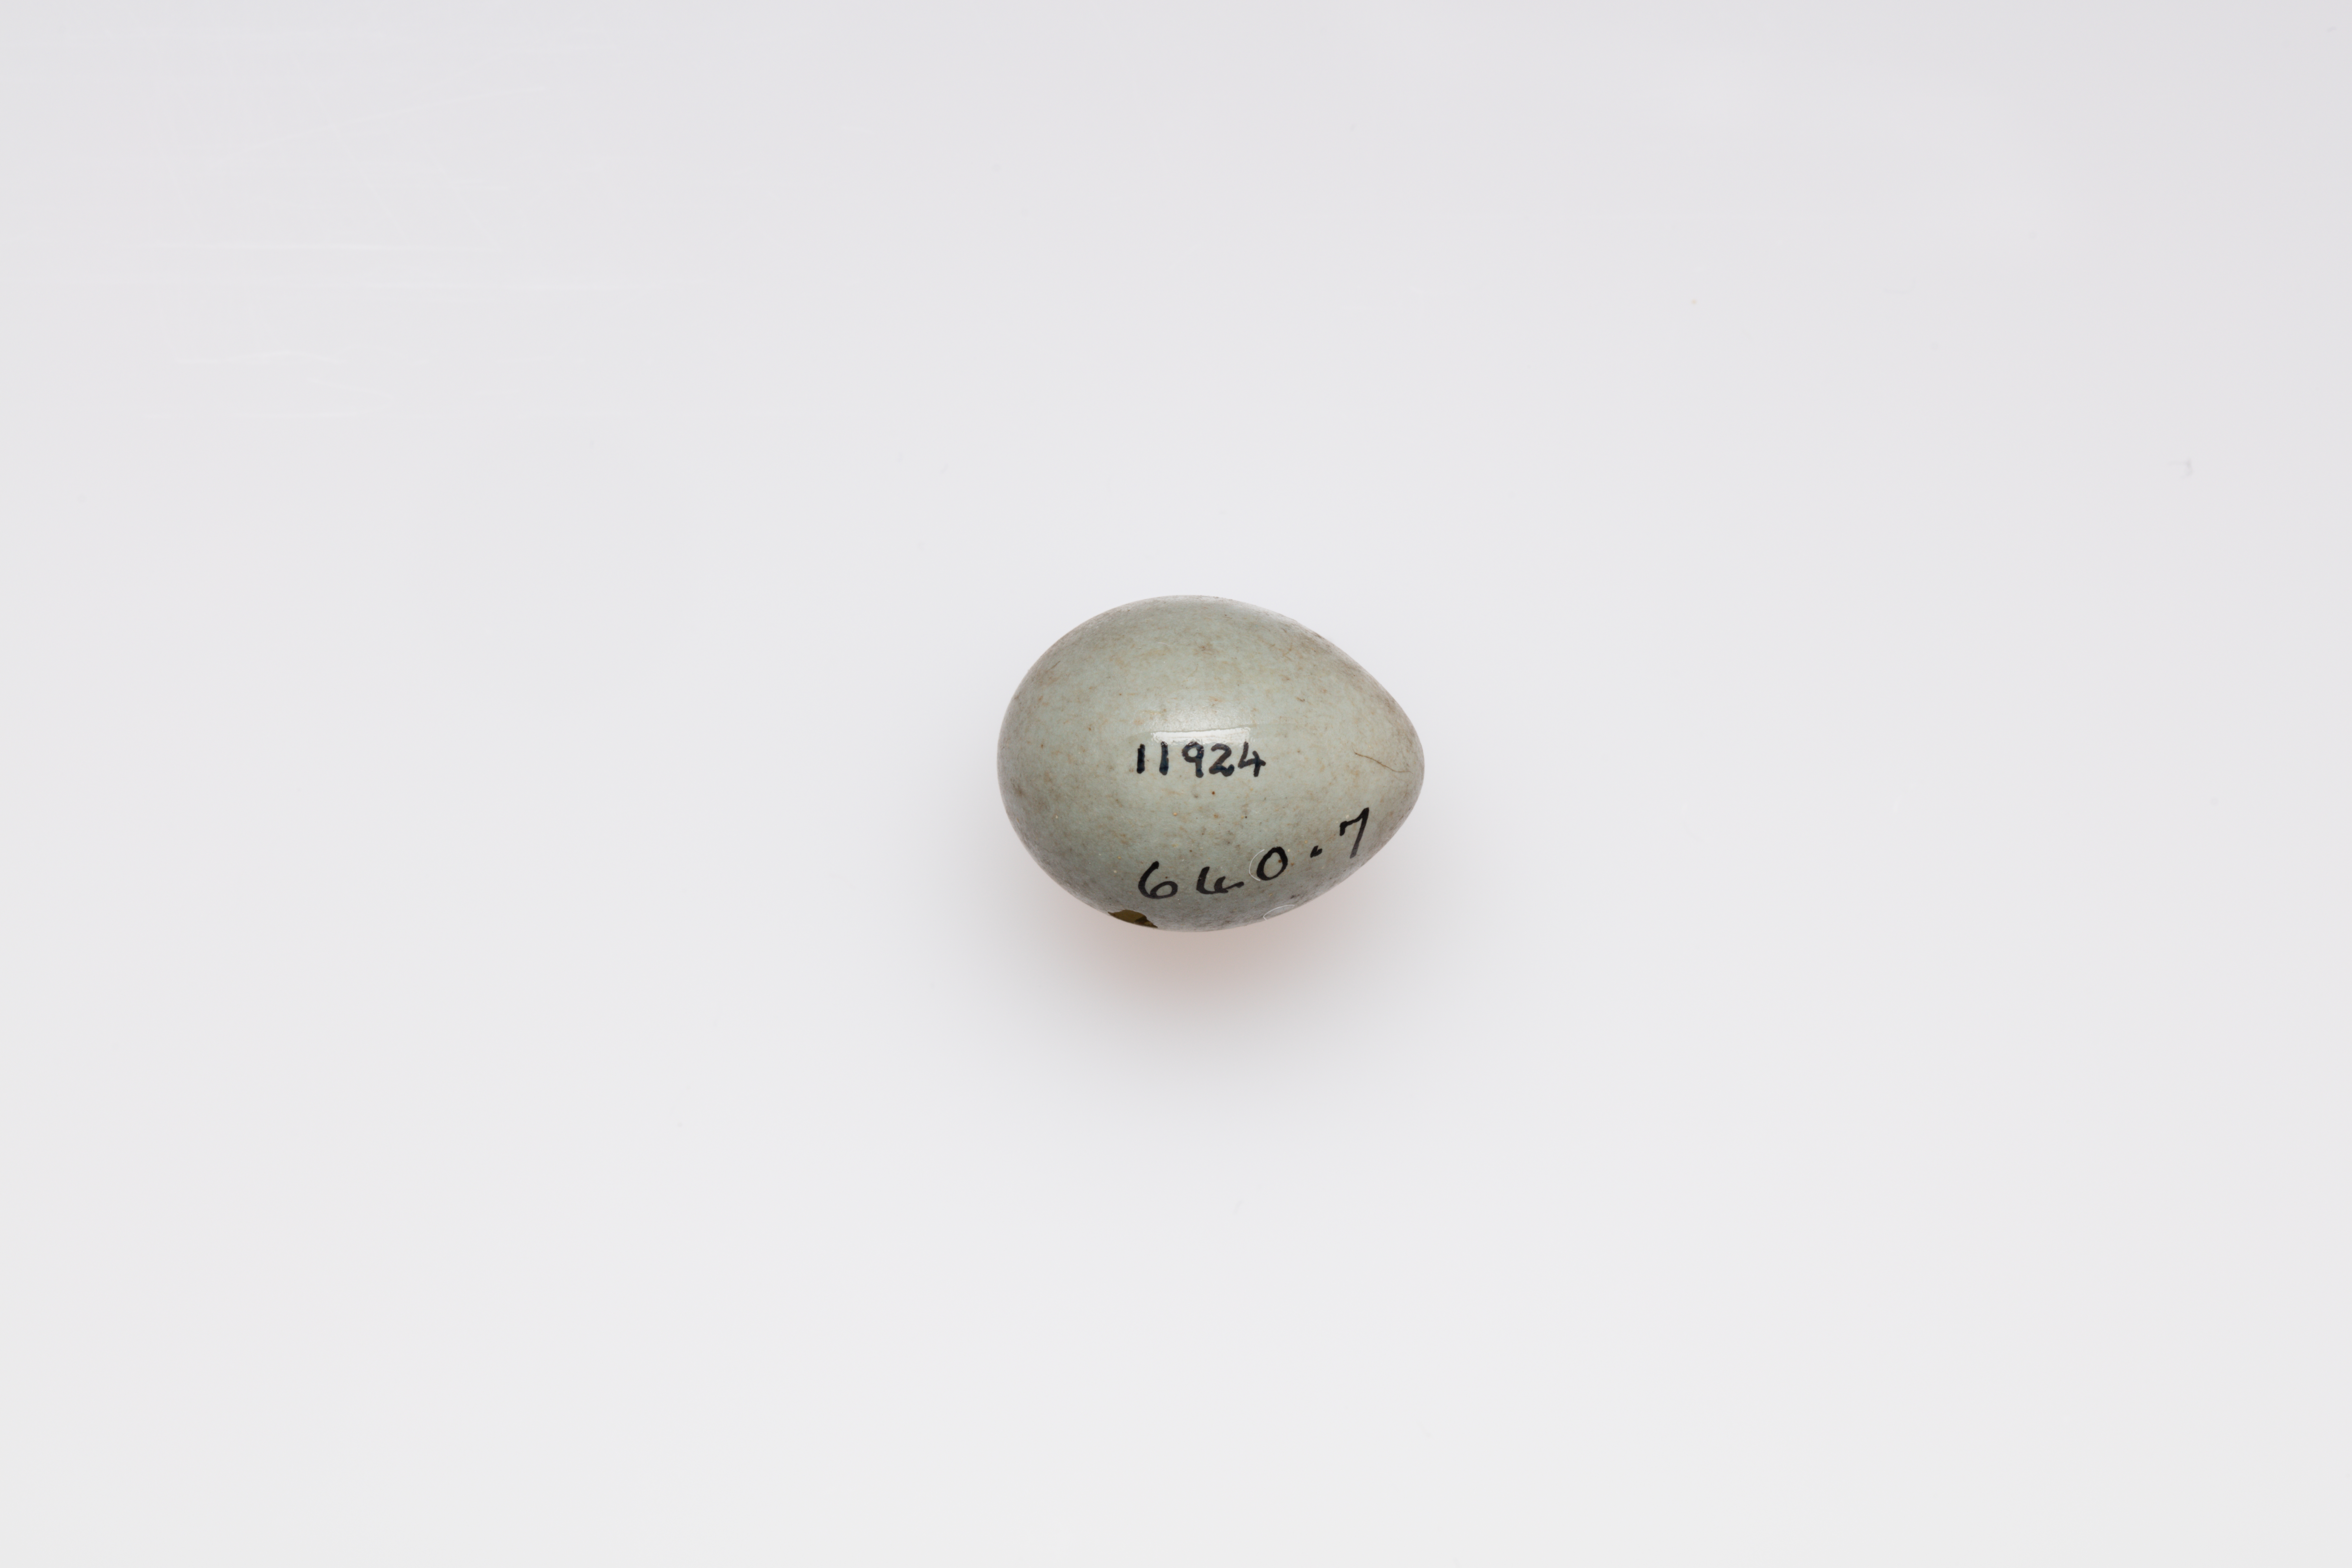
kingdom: Animalia
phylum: Chordata
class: Aves
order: Passeriformes
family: Muscicapidae
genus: Saxicola
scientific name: Saxicola torquatus
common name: African stonechat
